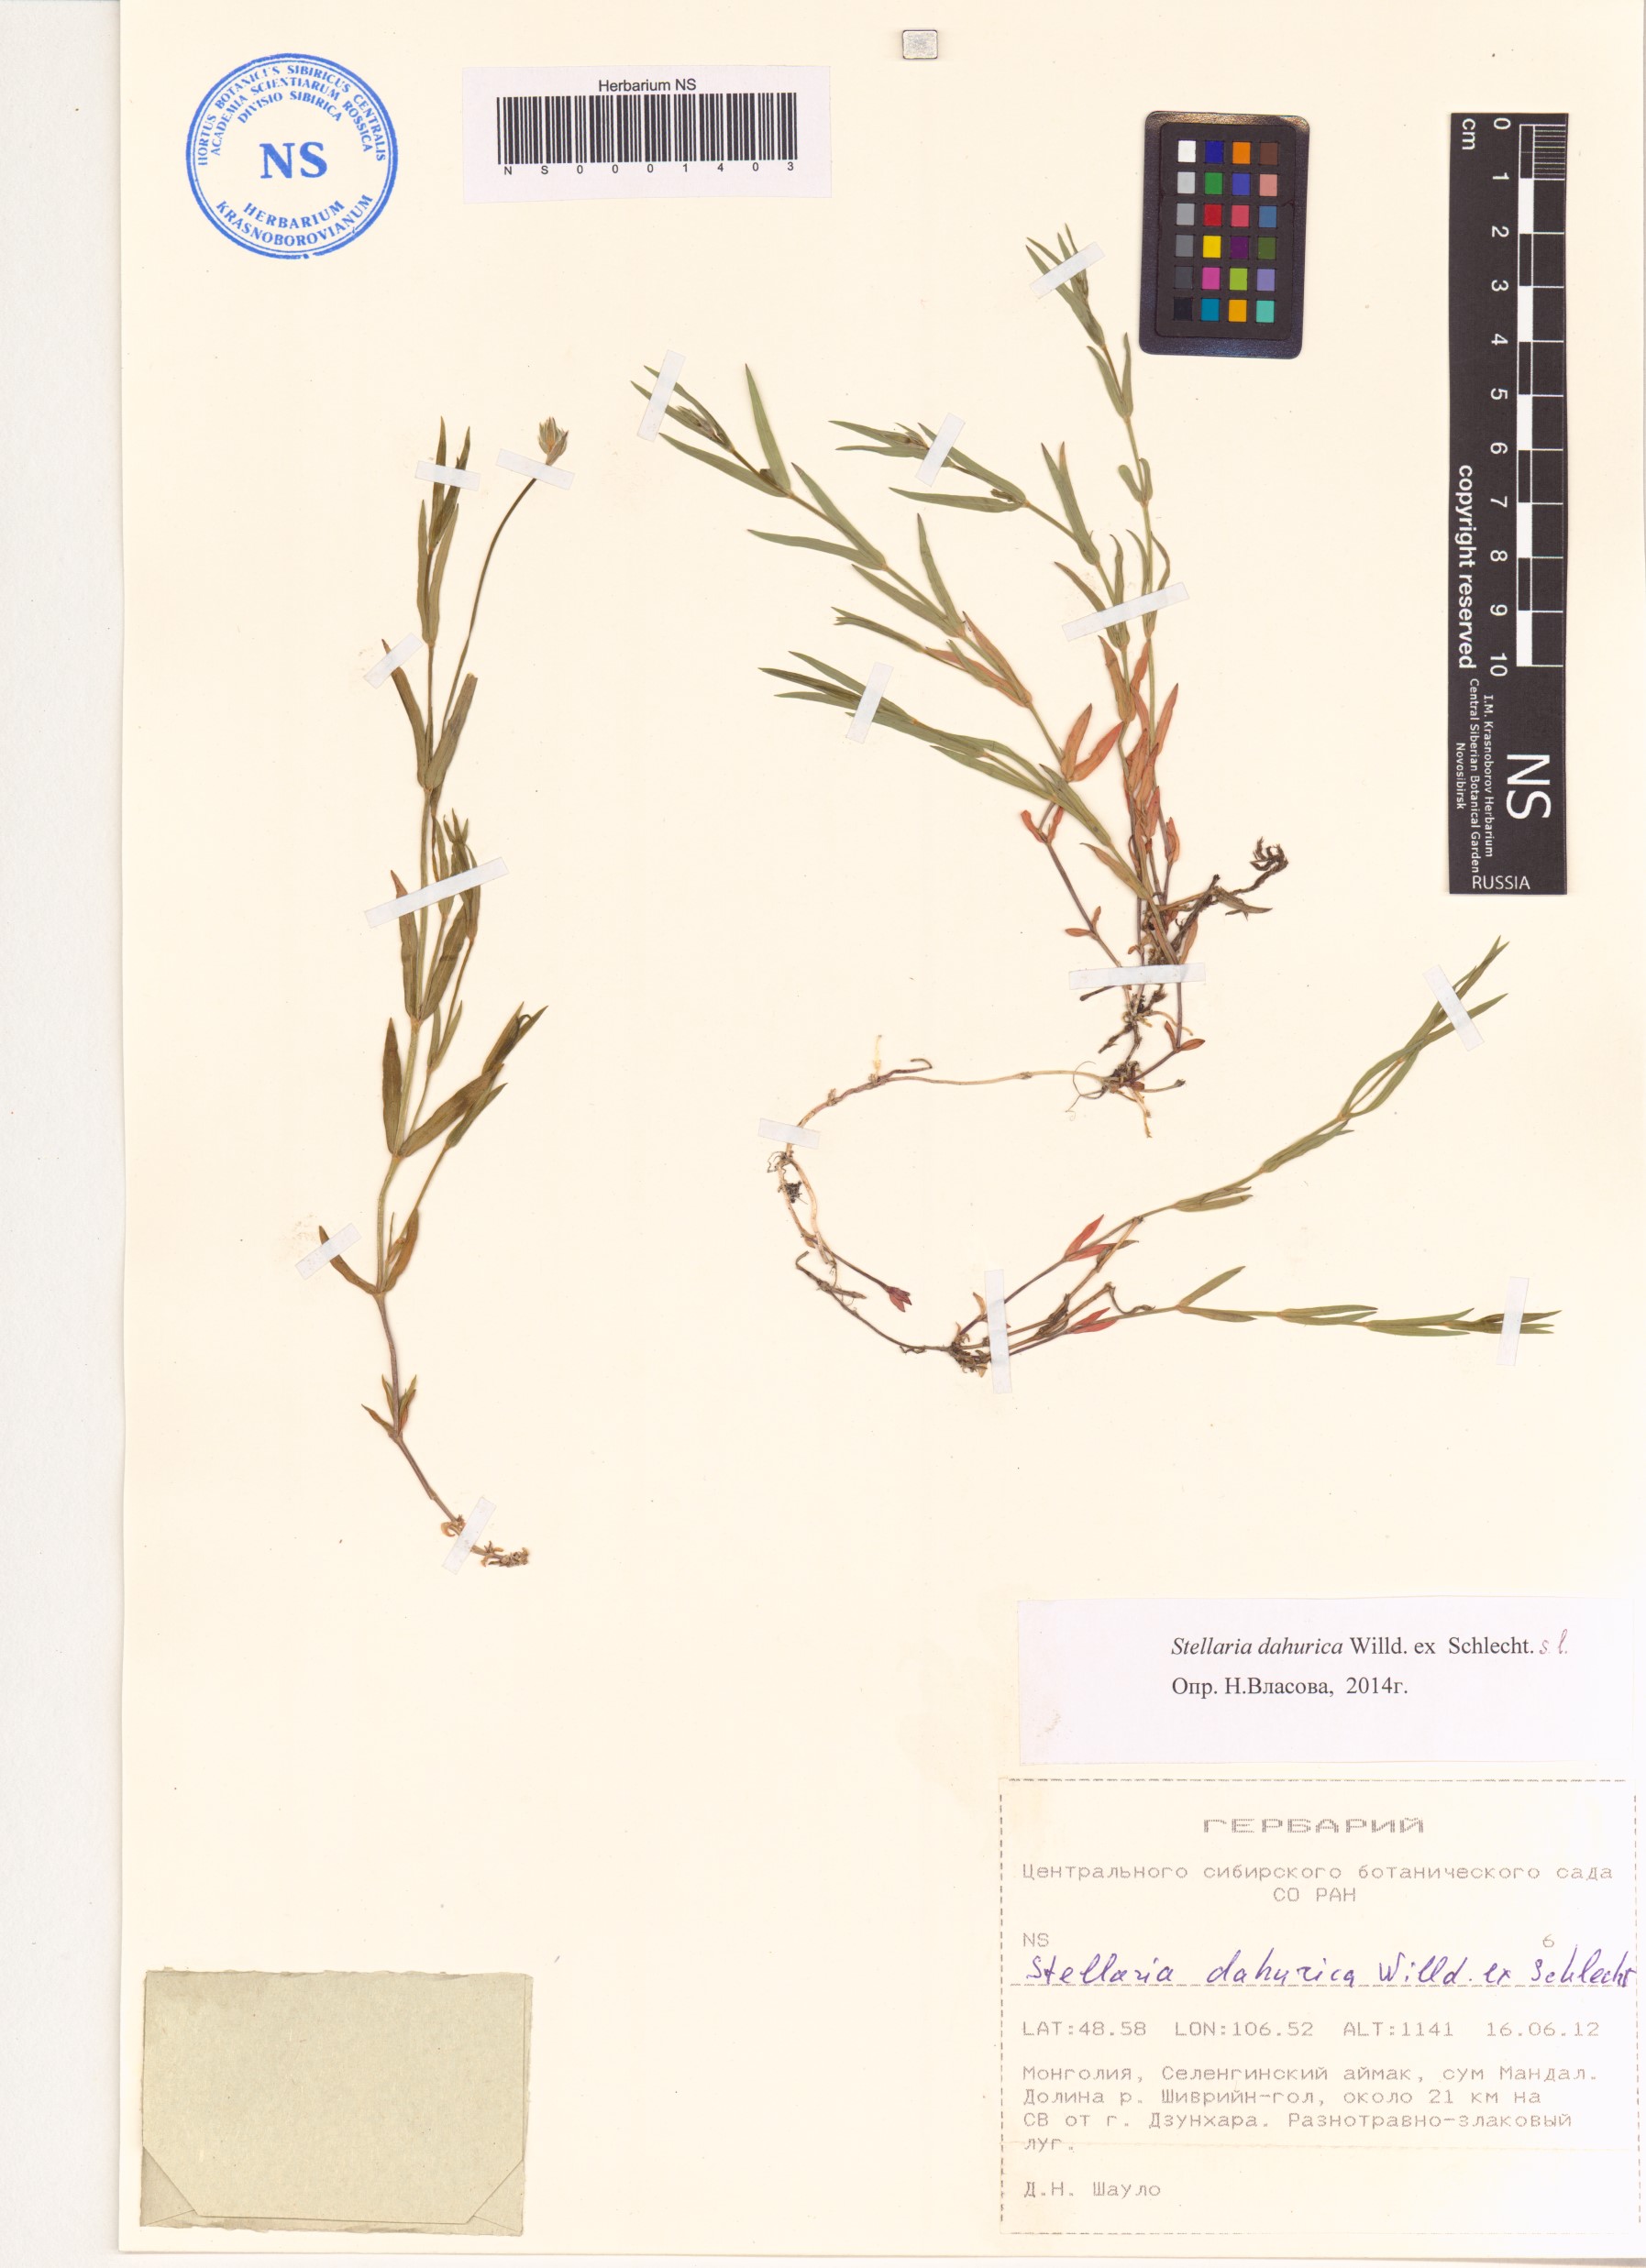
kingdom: Plantae
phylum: Tracheophyta
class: Magnoliopsida
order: Caryophyllales
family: Caryophyllaceae
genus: Stellaria
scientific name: Stellaria dahurica
